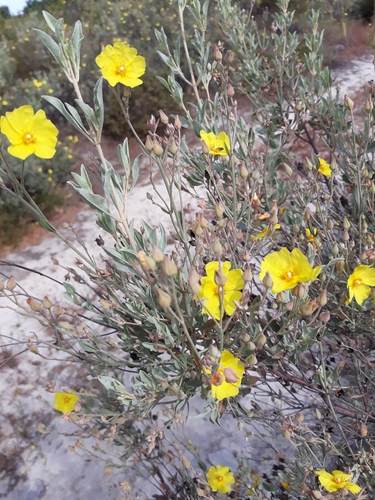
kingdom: Plantae
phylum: Tracheophyta
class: Magnoliopsida
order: Malvales
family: Cistaceae
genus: Halimium
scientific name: Halimium halimifolium
